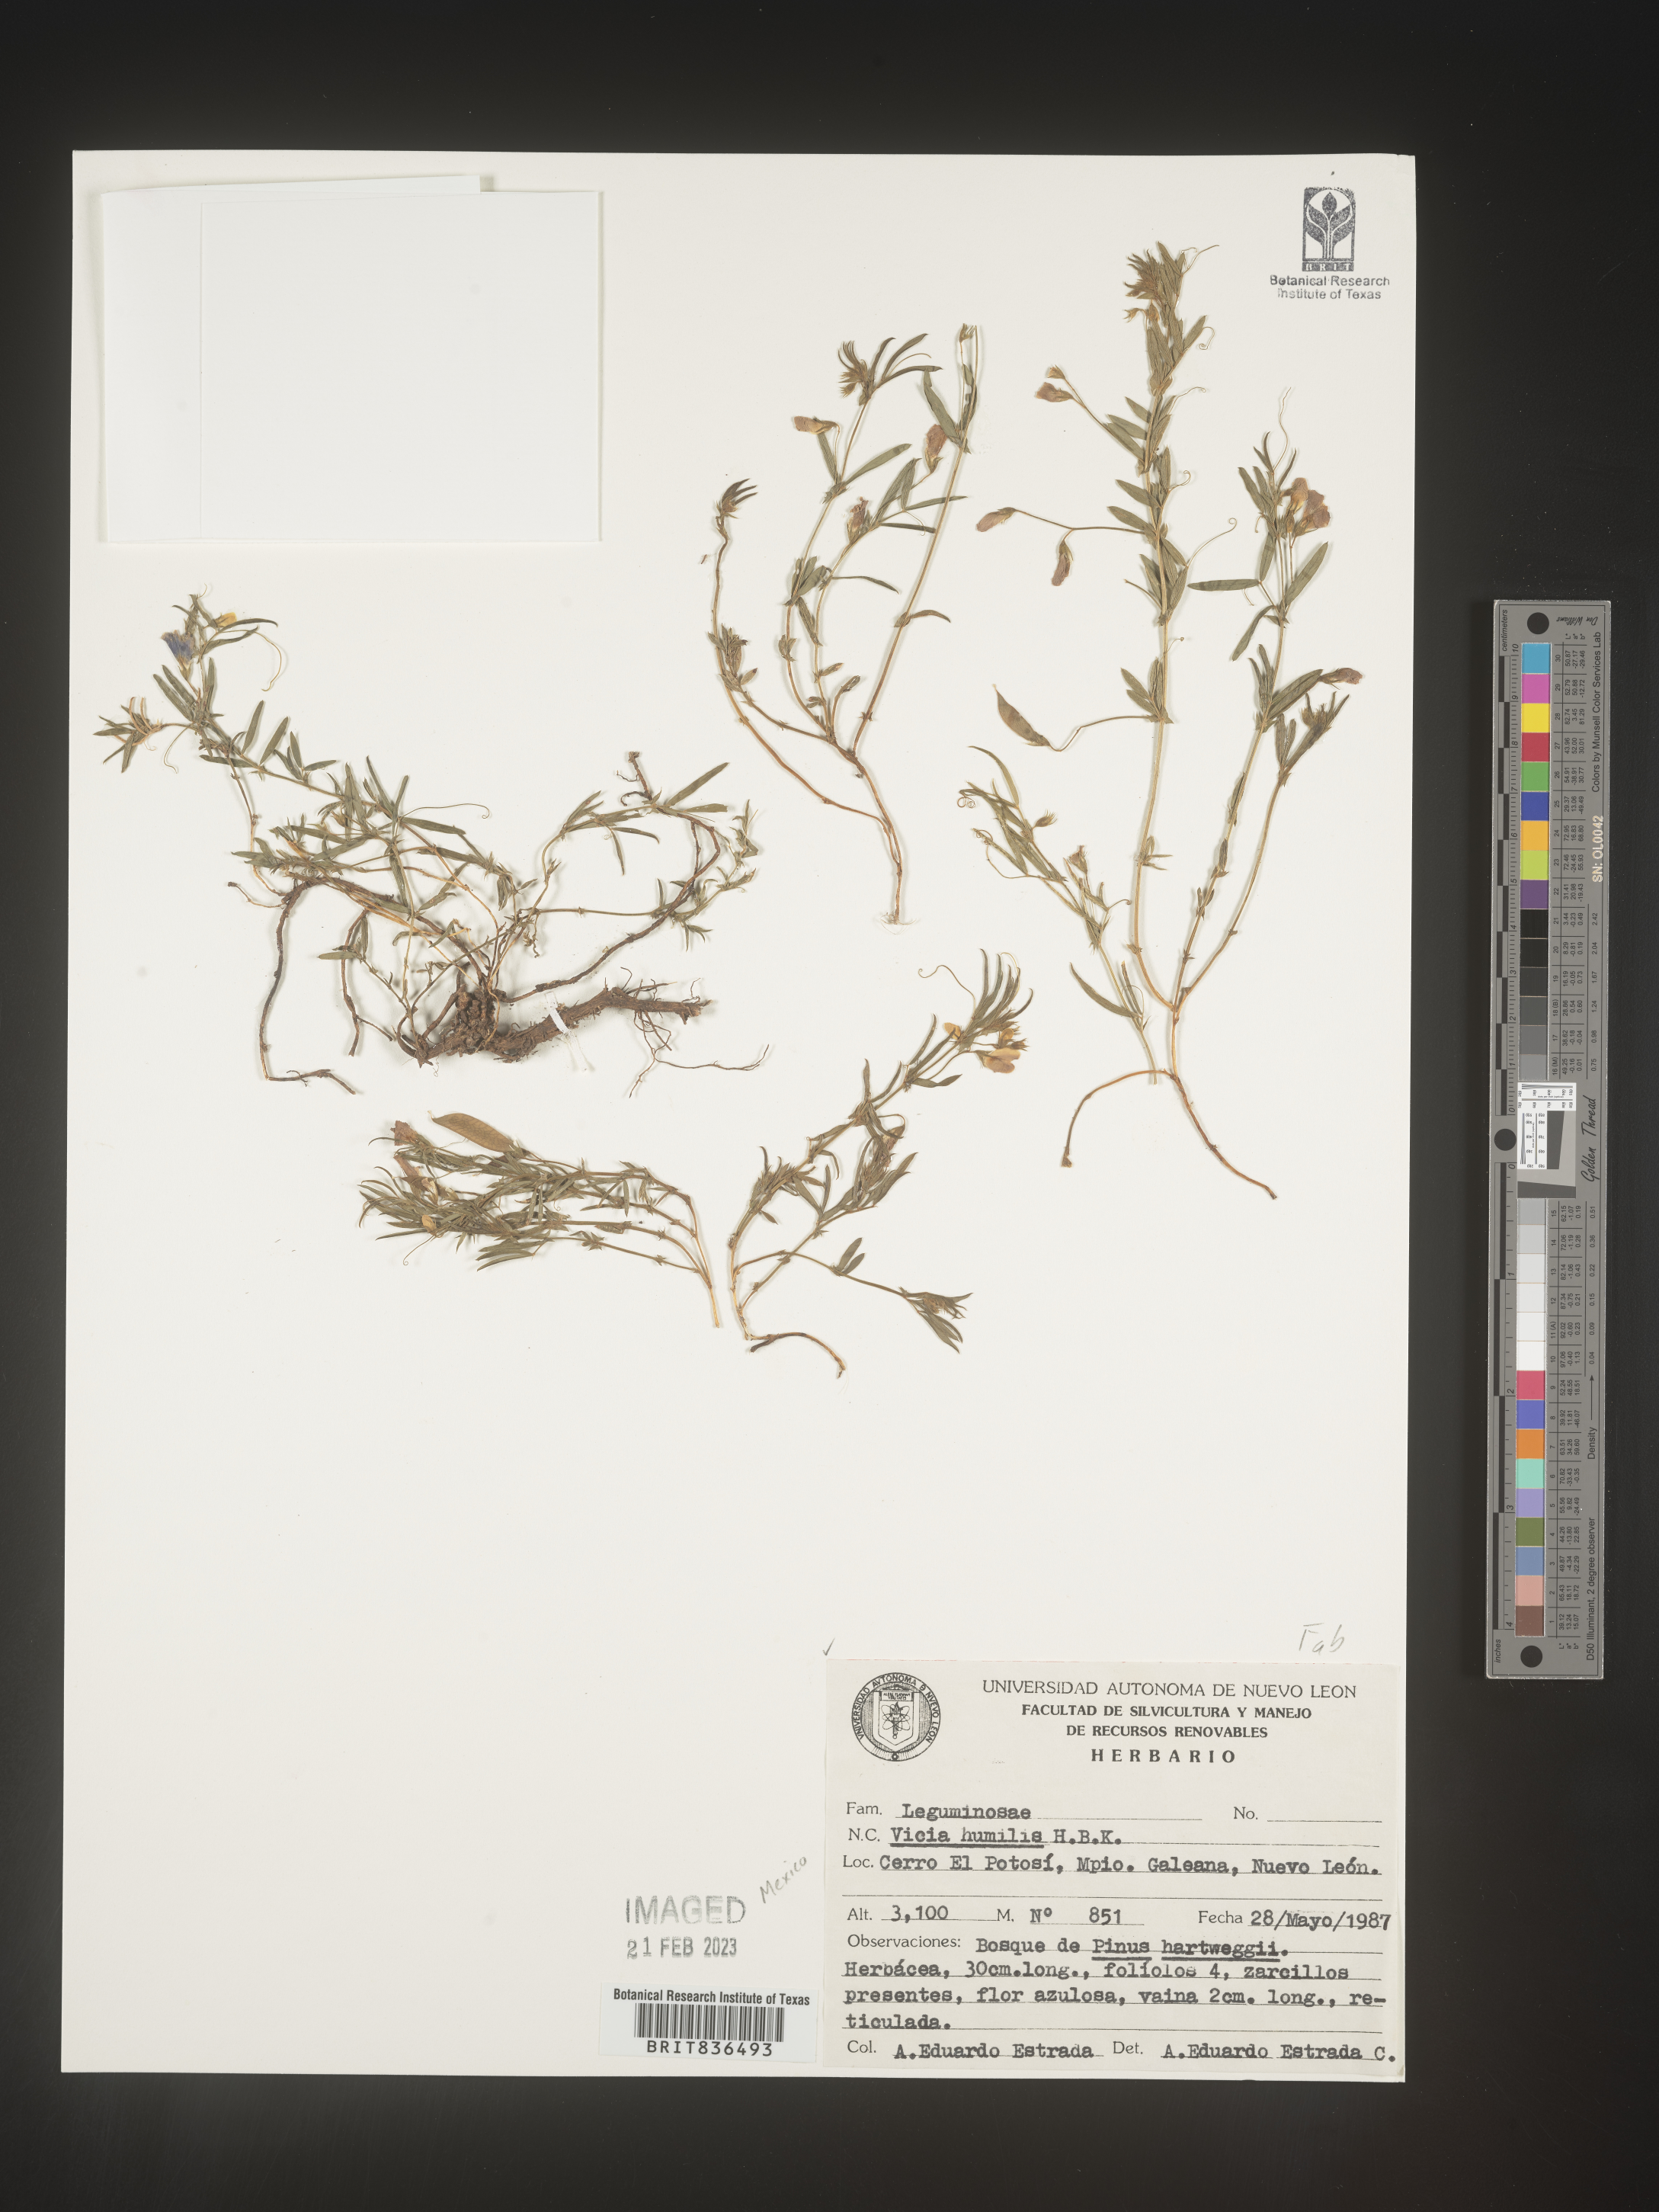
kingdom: Plantae
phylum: Tracheophyta
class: Magnoliopsida
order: Fabales
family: Fabaceae
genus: Vicia
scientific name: Vicia
